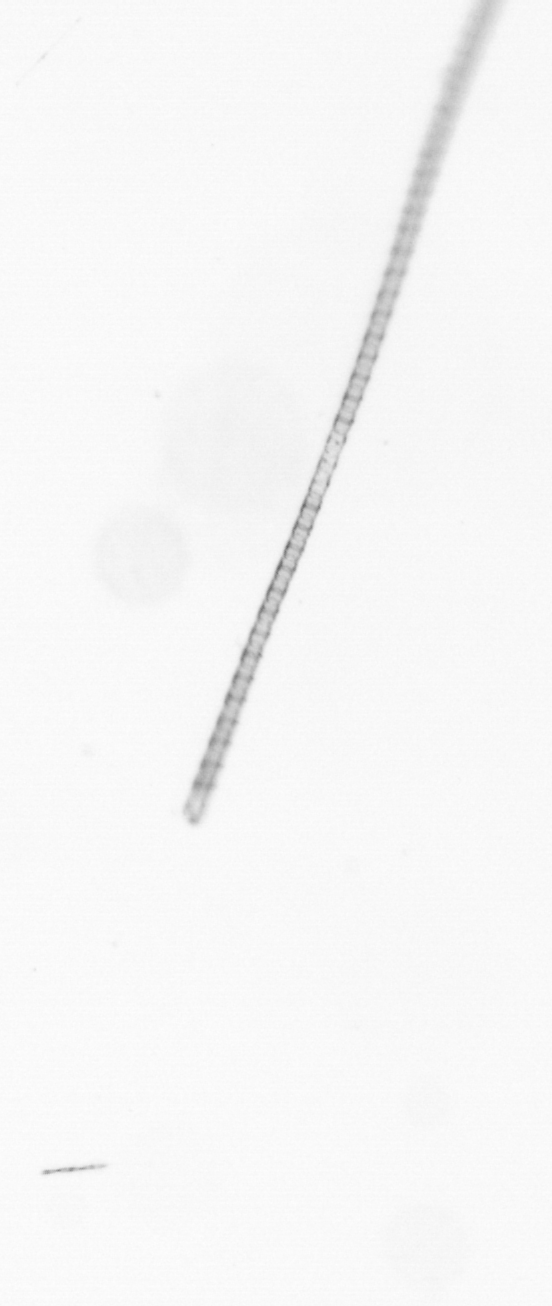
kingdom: Chromista
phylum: Ochrophyta
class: Bacillariophyceae
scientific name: Bacillariophyceae
